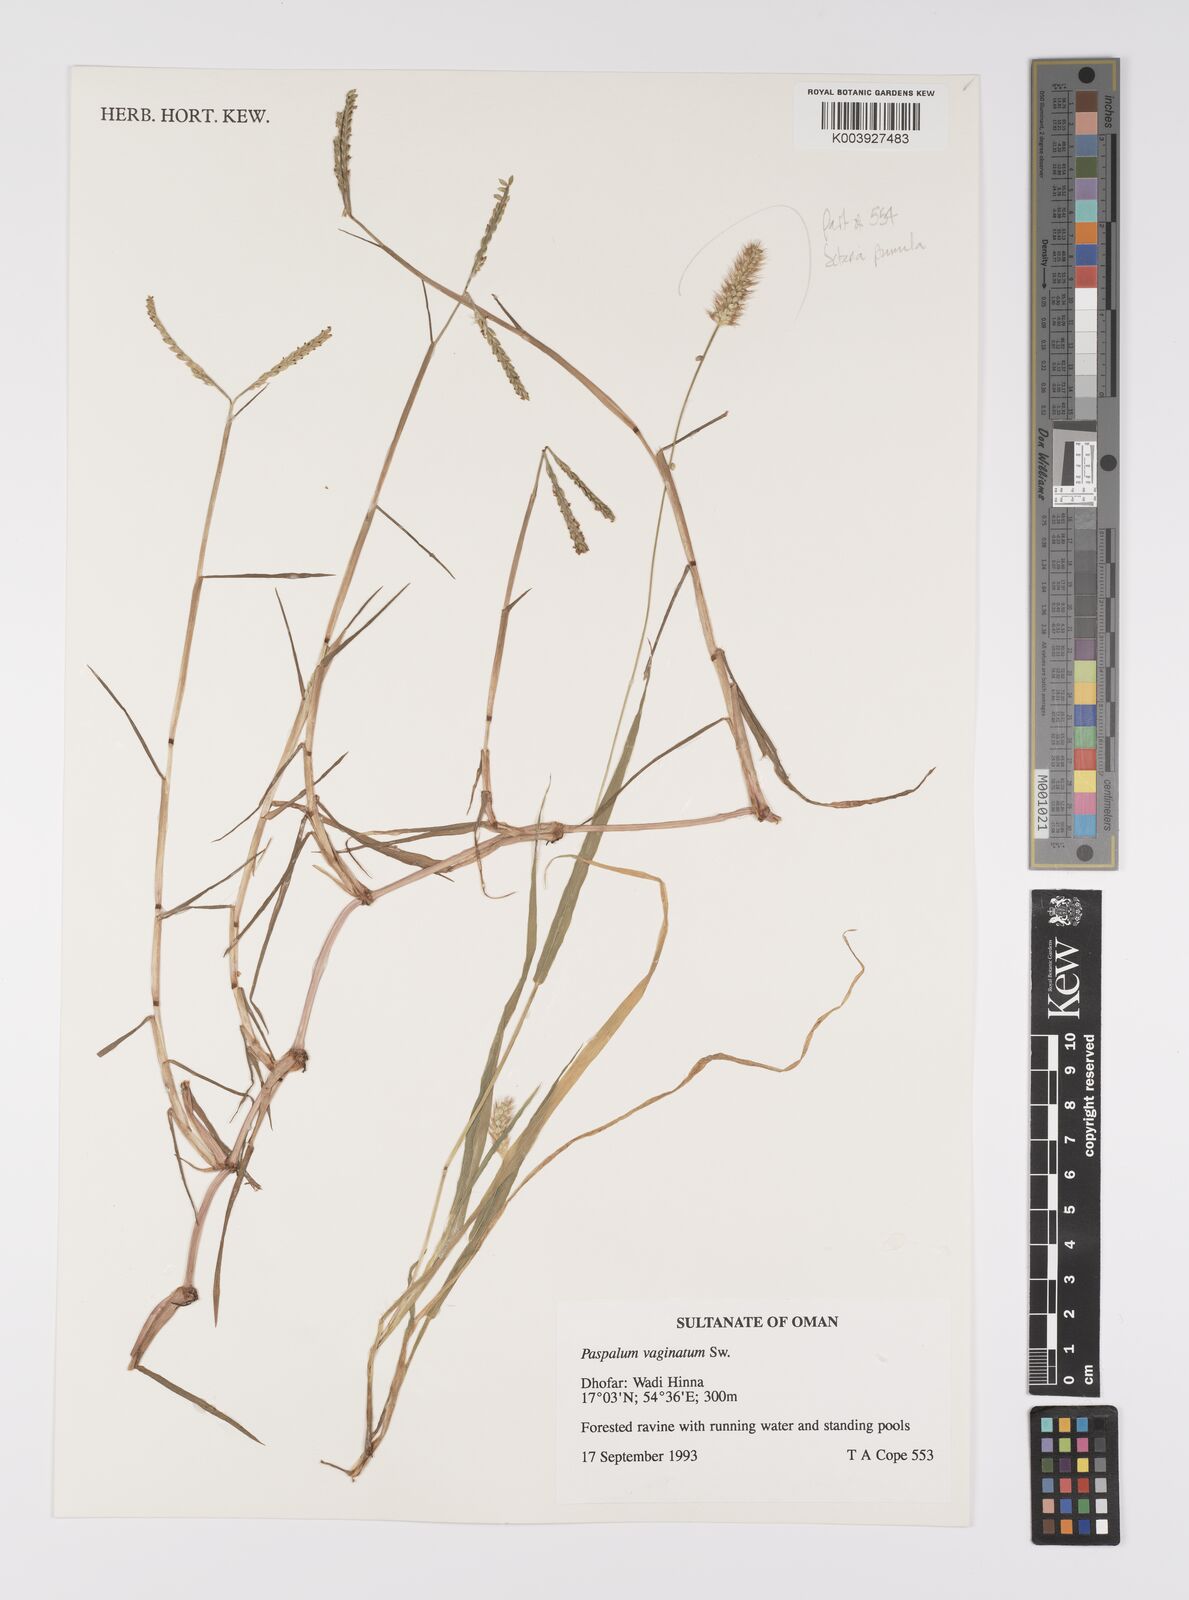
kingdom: Plantae
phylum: Tracheophyta
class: Liliopsida
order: Poales
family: Poaceae
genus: Paspalum
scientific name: Paspalum vaginatum
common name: Seashore paspalum
